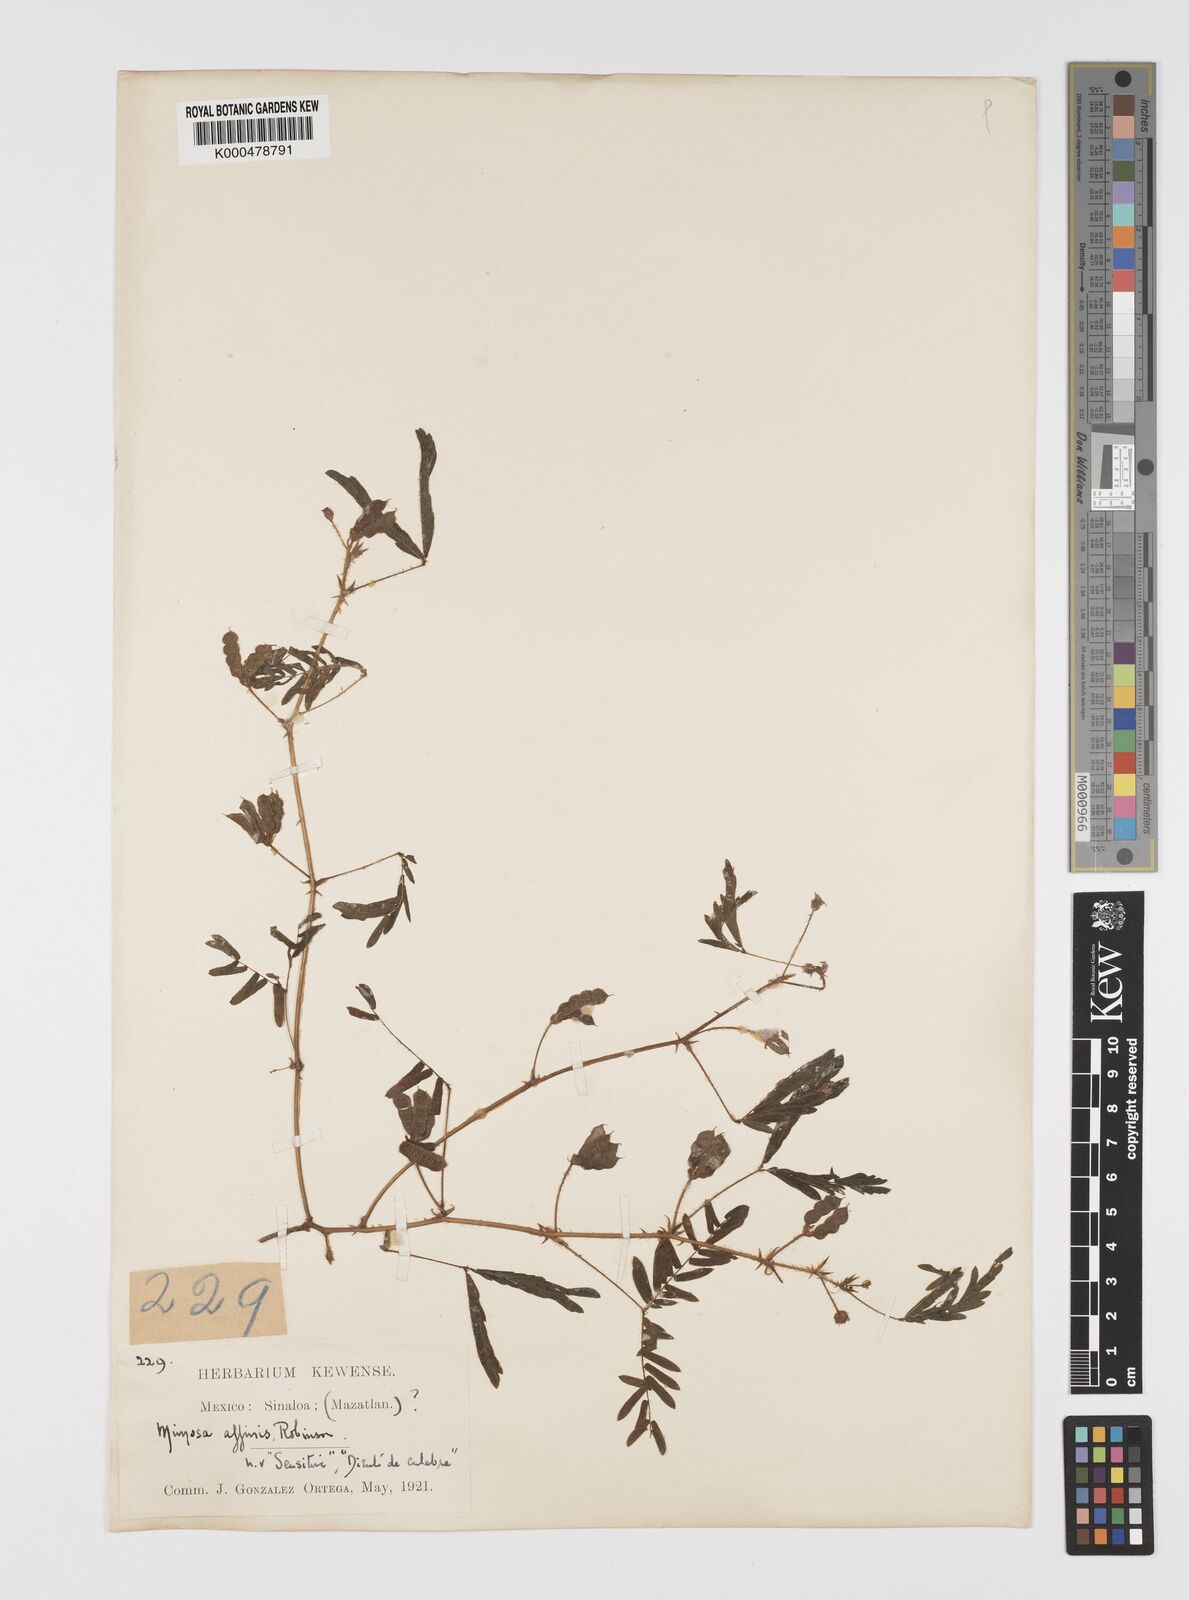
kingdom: Plantae
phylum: Tracheophyta
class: Magnoliopsida
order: Fabales
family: Fabaceae
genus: Mimosa
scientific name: Mimosa affinis
